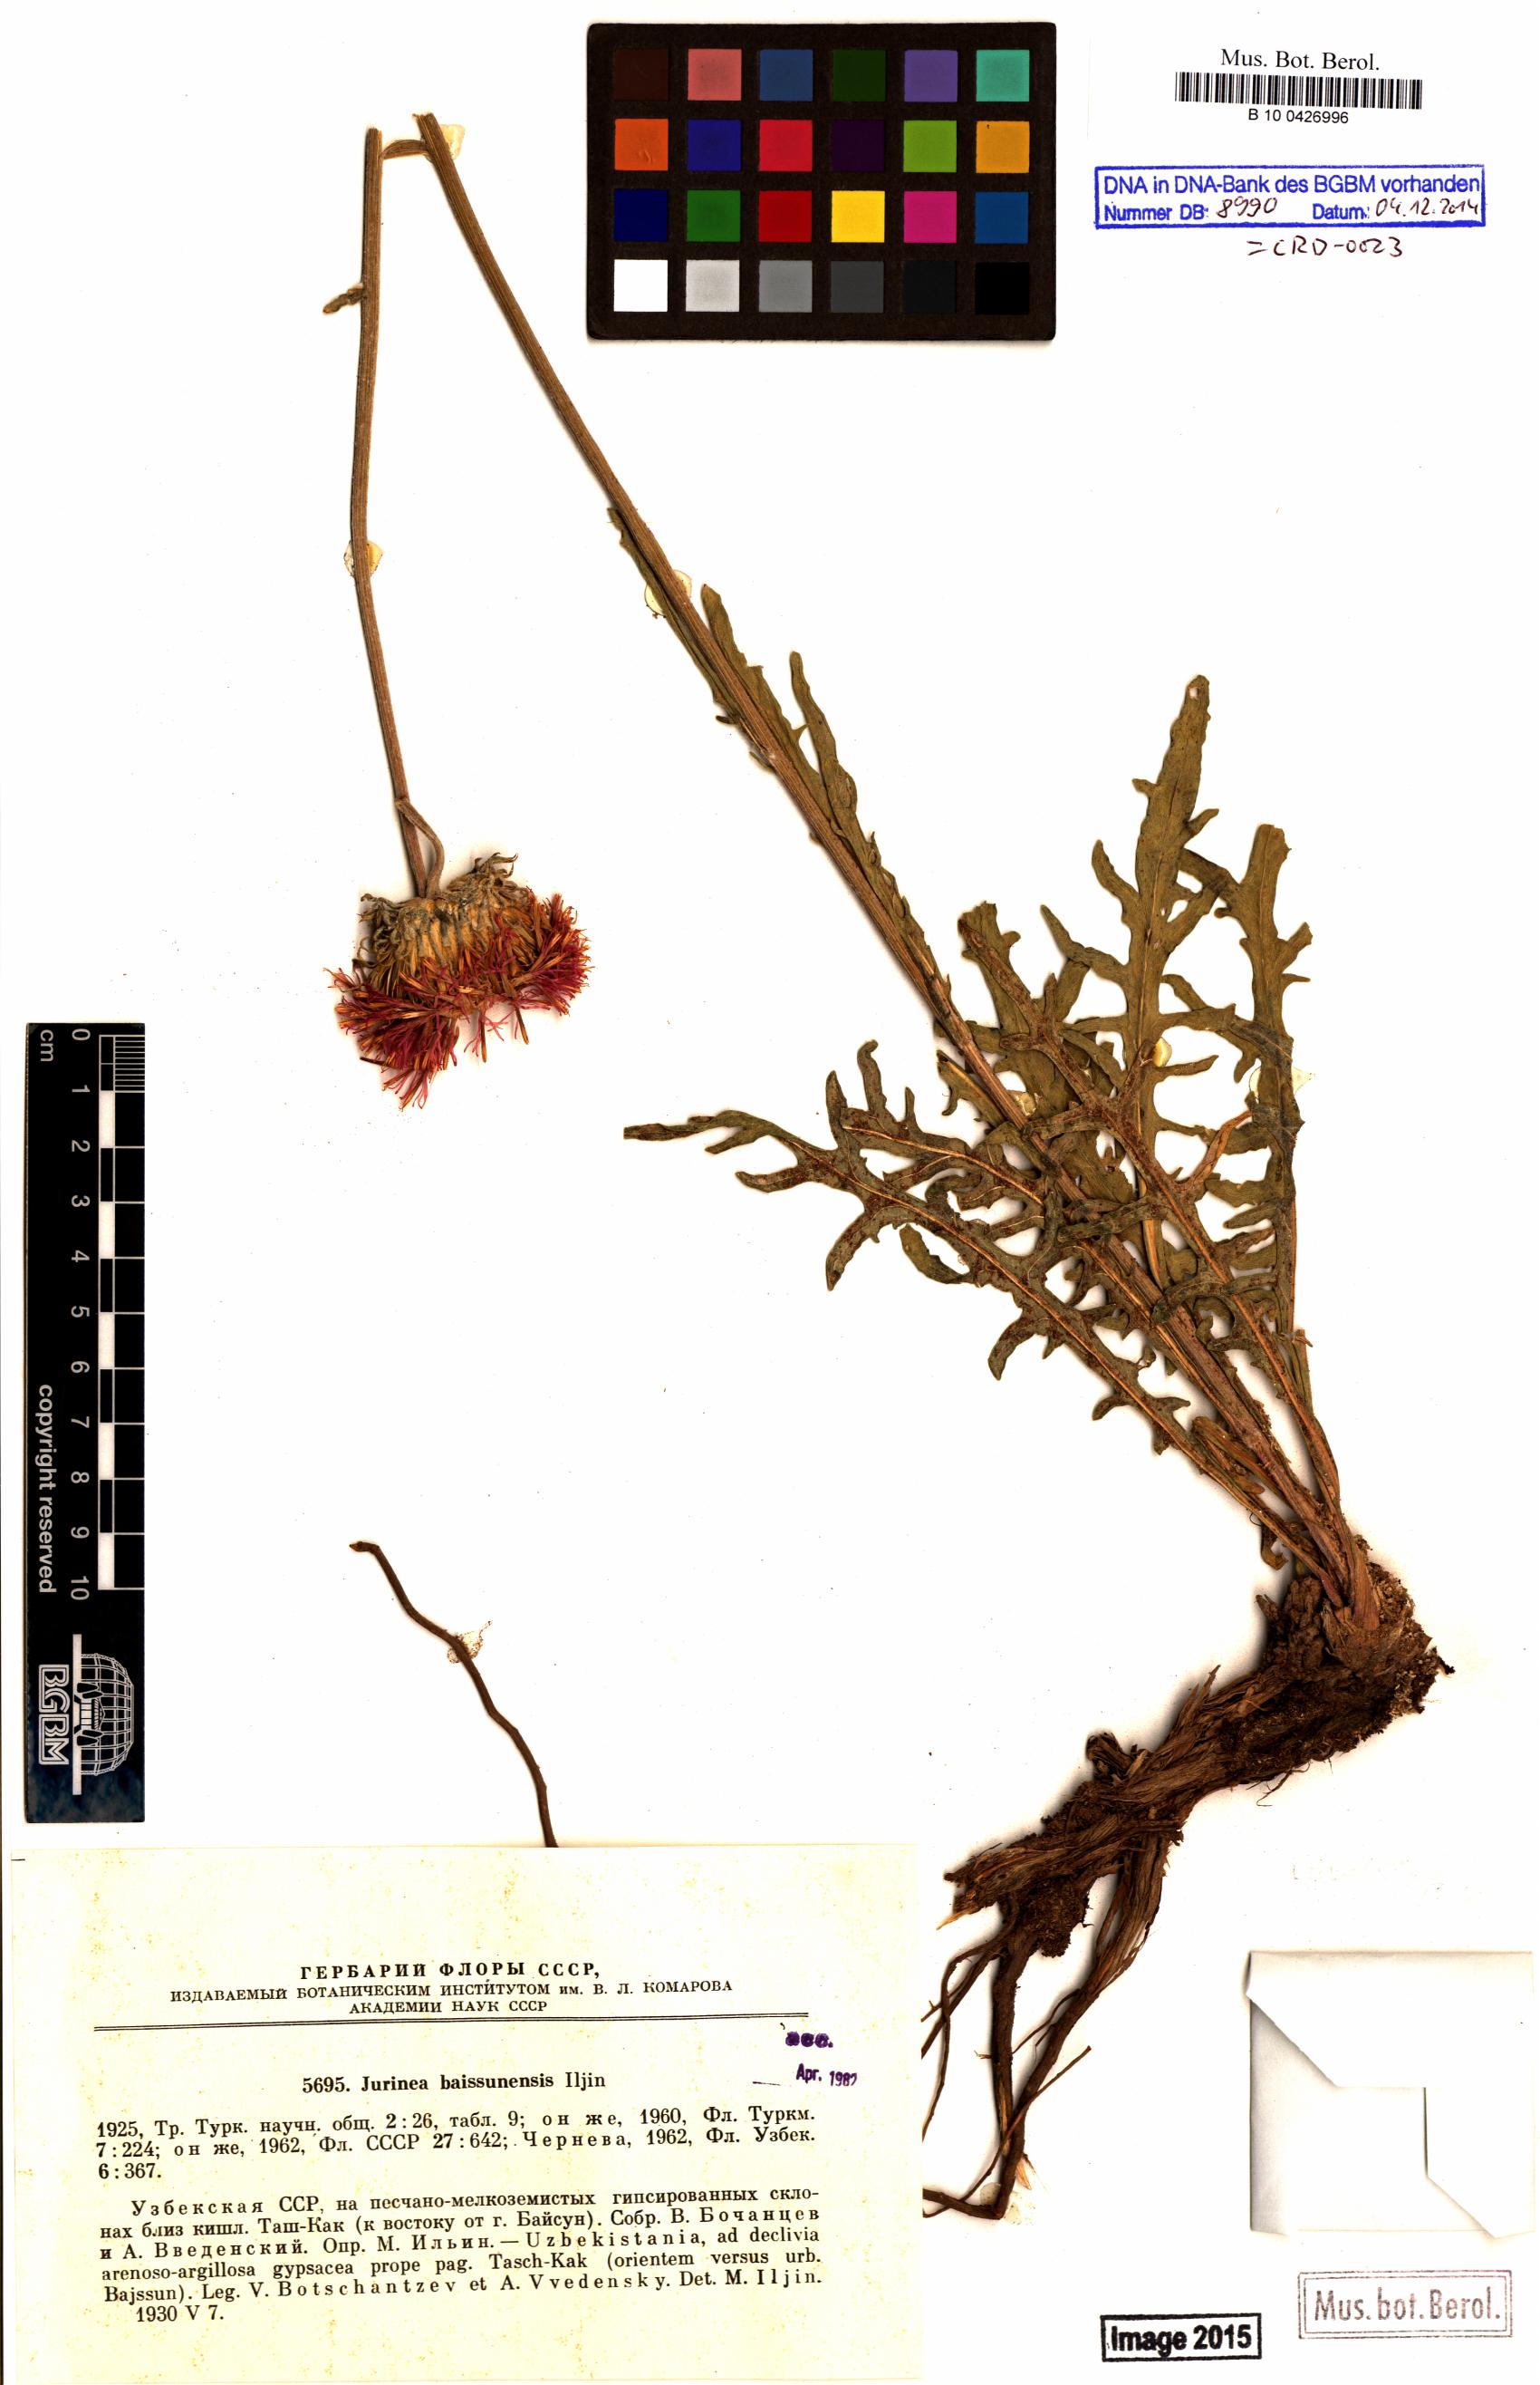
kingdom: Plantae
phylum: Tracheophyta
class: Magnoliopsida
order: Asterales
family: Asteraceae
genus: Jurinea
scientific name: Jurinea baissunensis
